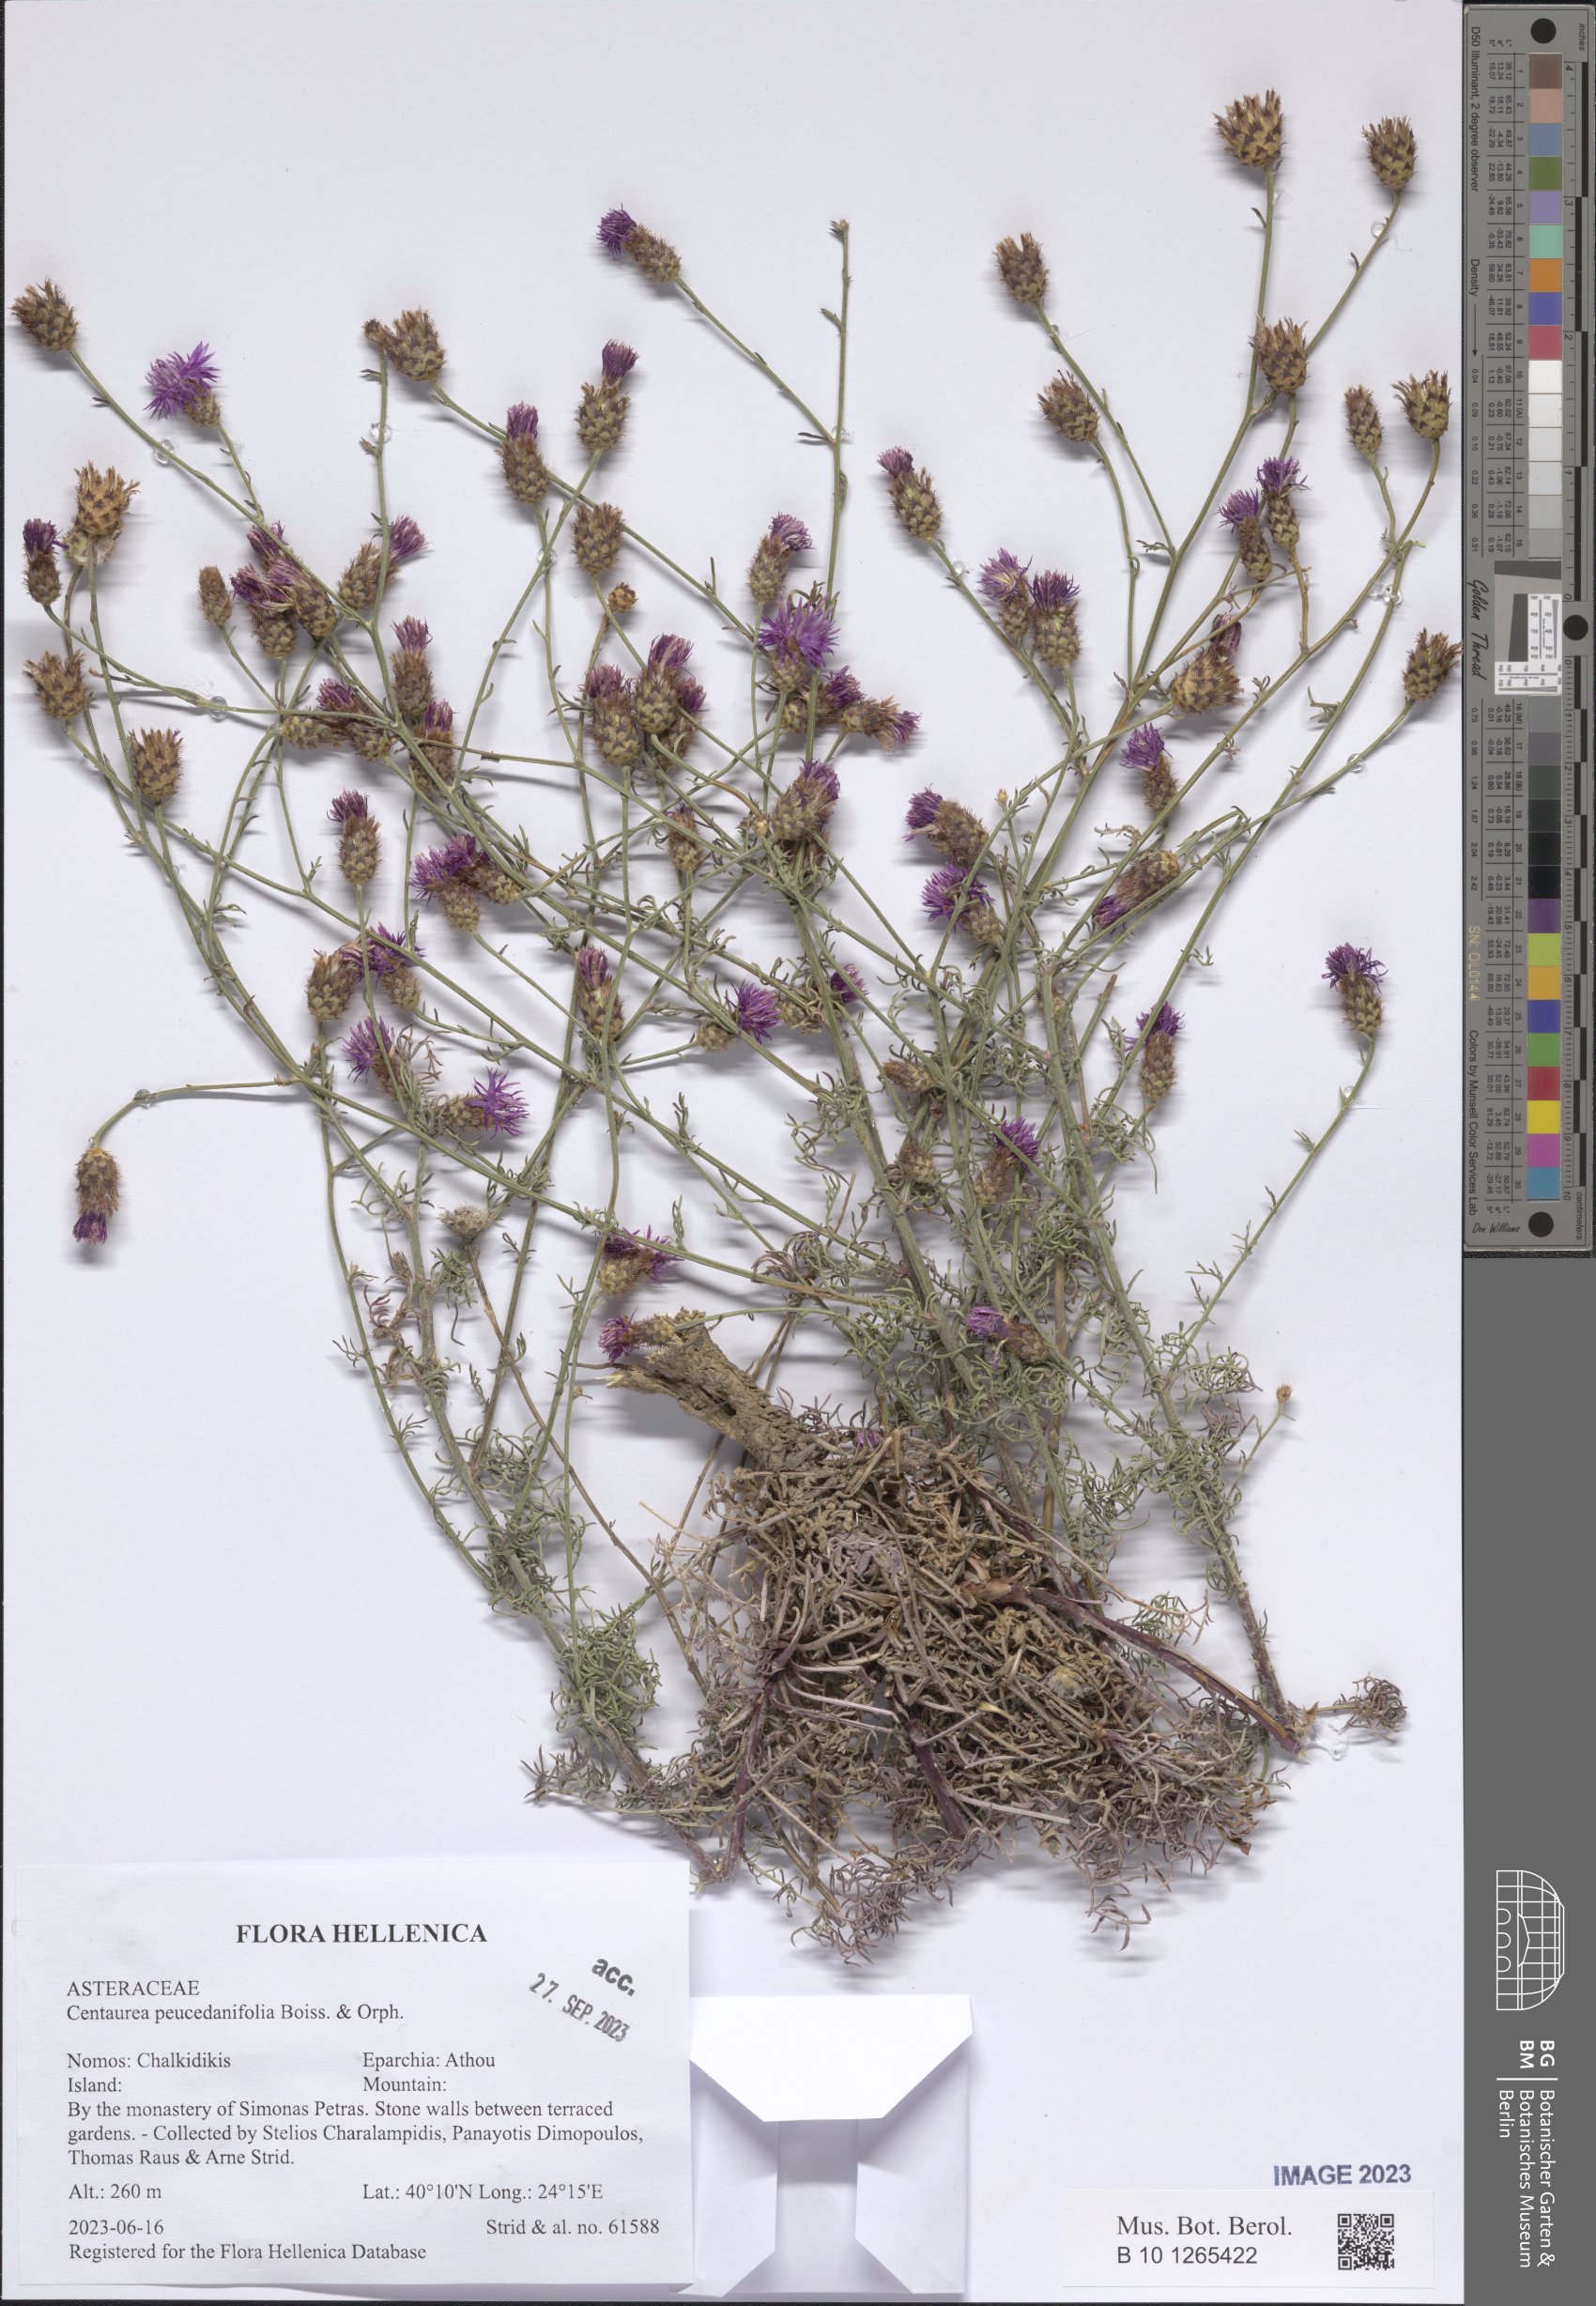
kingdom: Plantae
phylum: Tracheophyta
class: Magnoliopsida
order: Asterales
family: Asteraceae
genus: Centaurea
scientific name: Centaurea peucedanifolia
